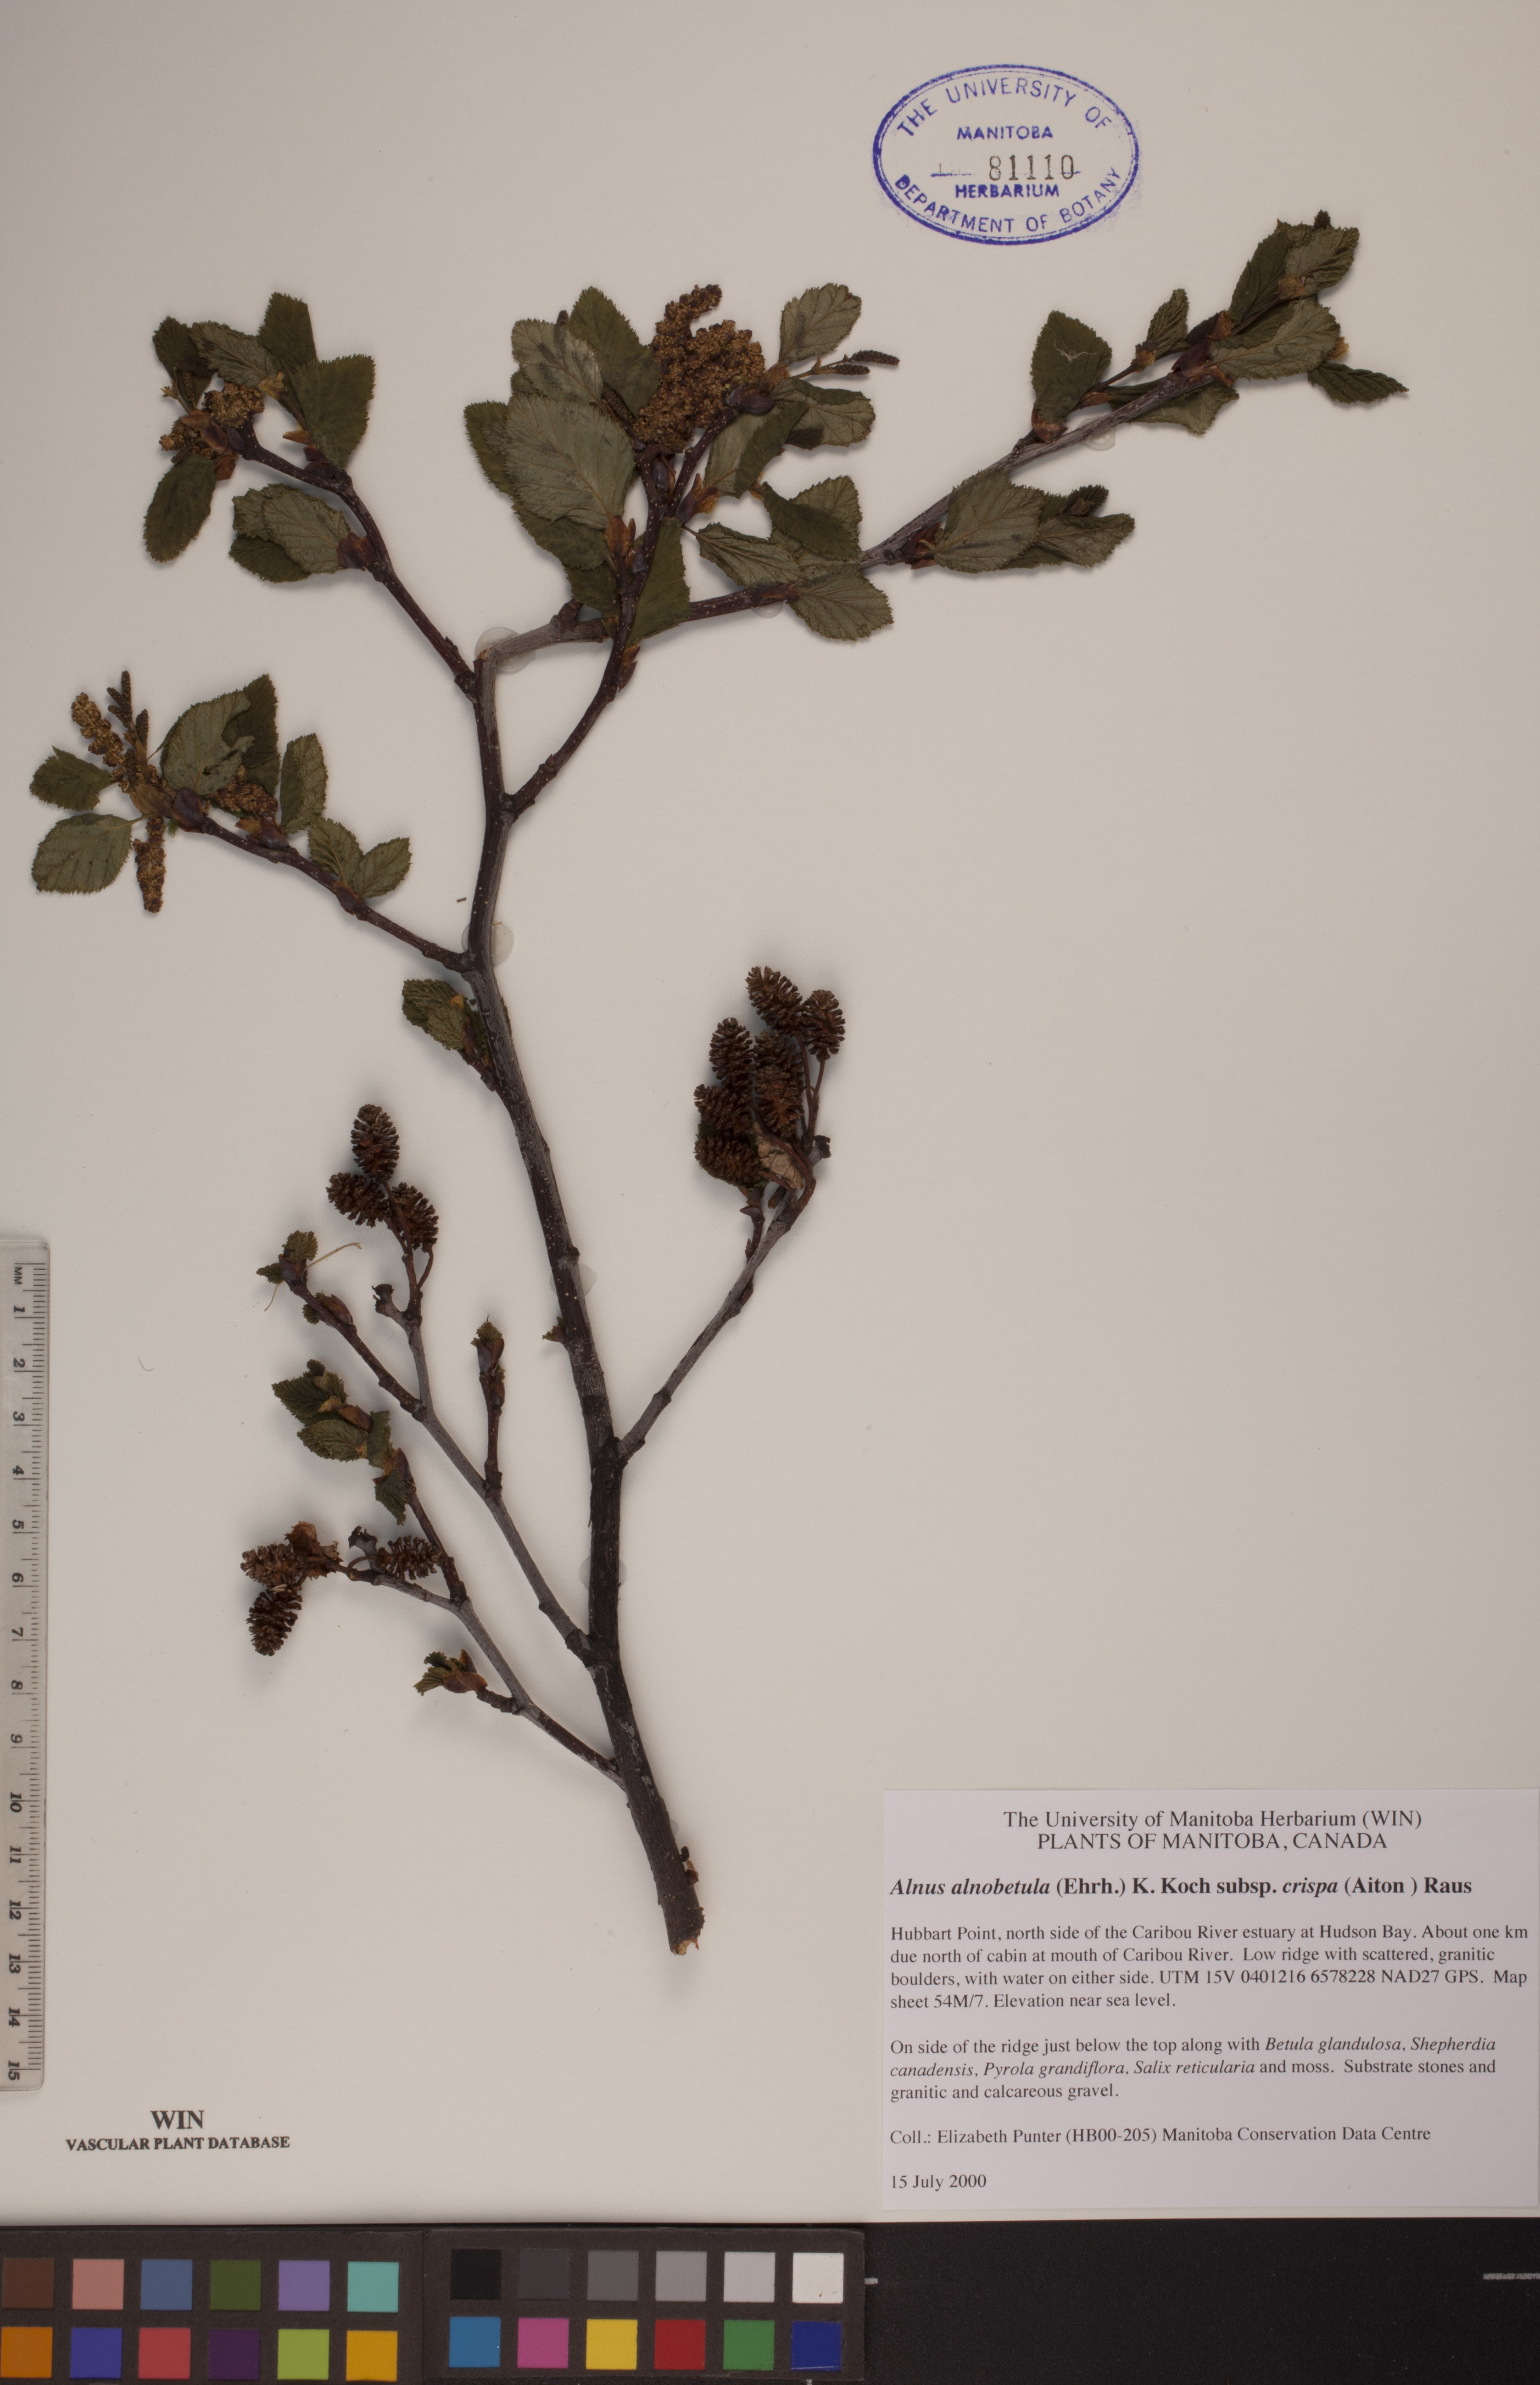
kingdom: Plantae
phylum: Tracheophyta
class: Magnoliopsida
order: Fagales
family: Betulaceae
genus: Alnus
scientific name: Alnus alnobetula
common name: Green alder
